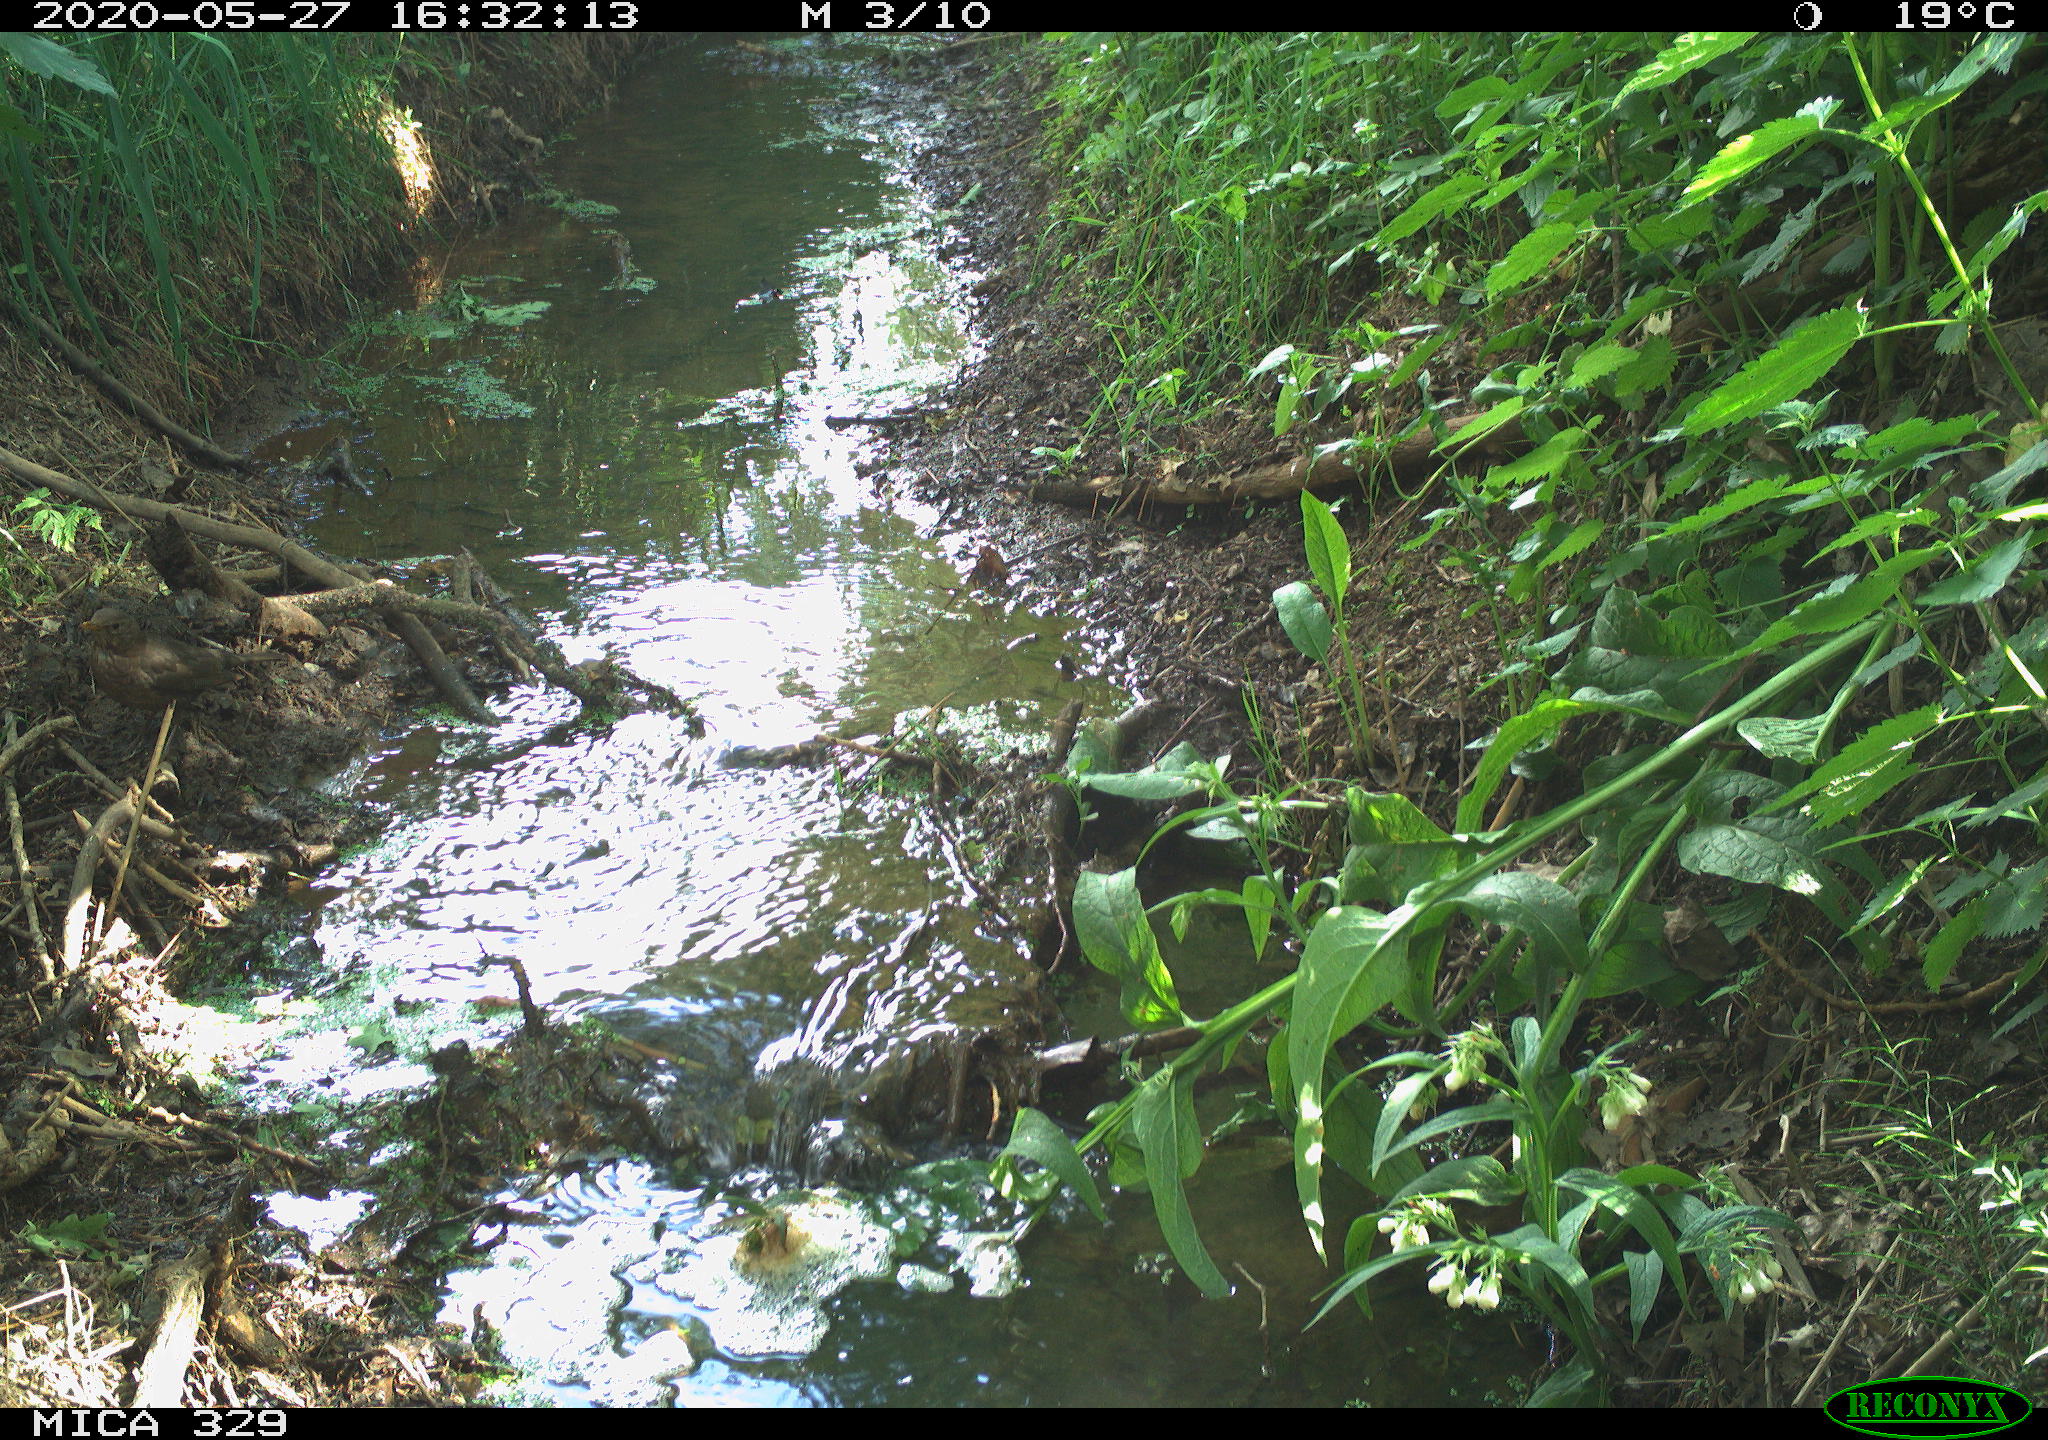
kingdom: Animalia
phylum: Chordata
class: Aves
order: Passeriformes
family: Turdidae
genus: Turdus
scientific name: Turdus merula
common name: Common blackbird
